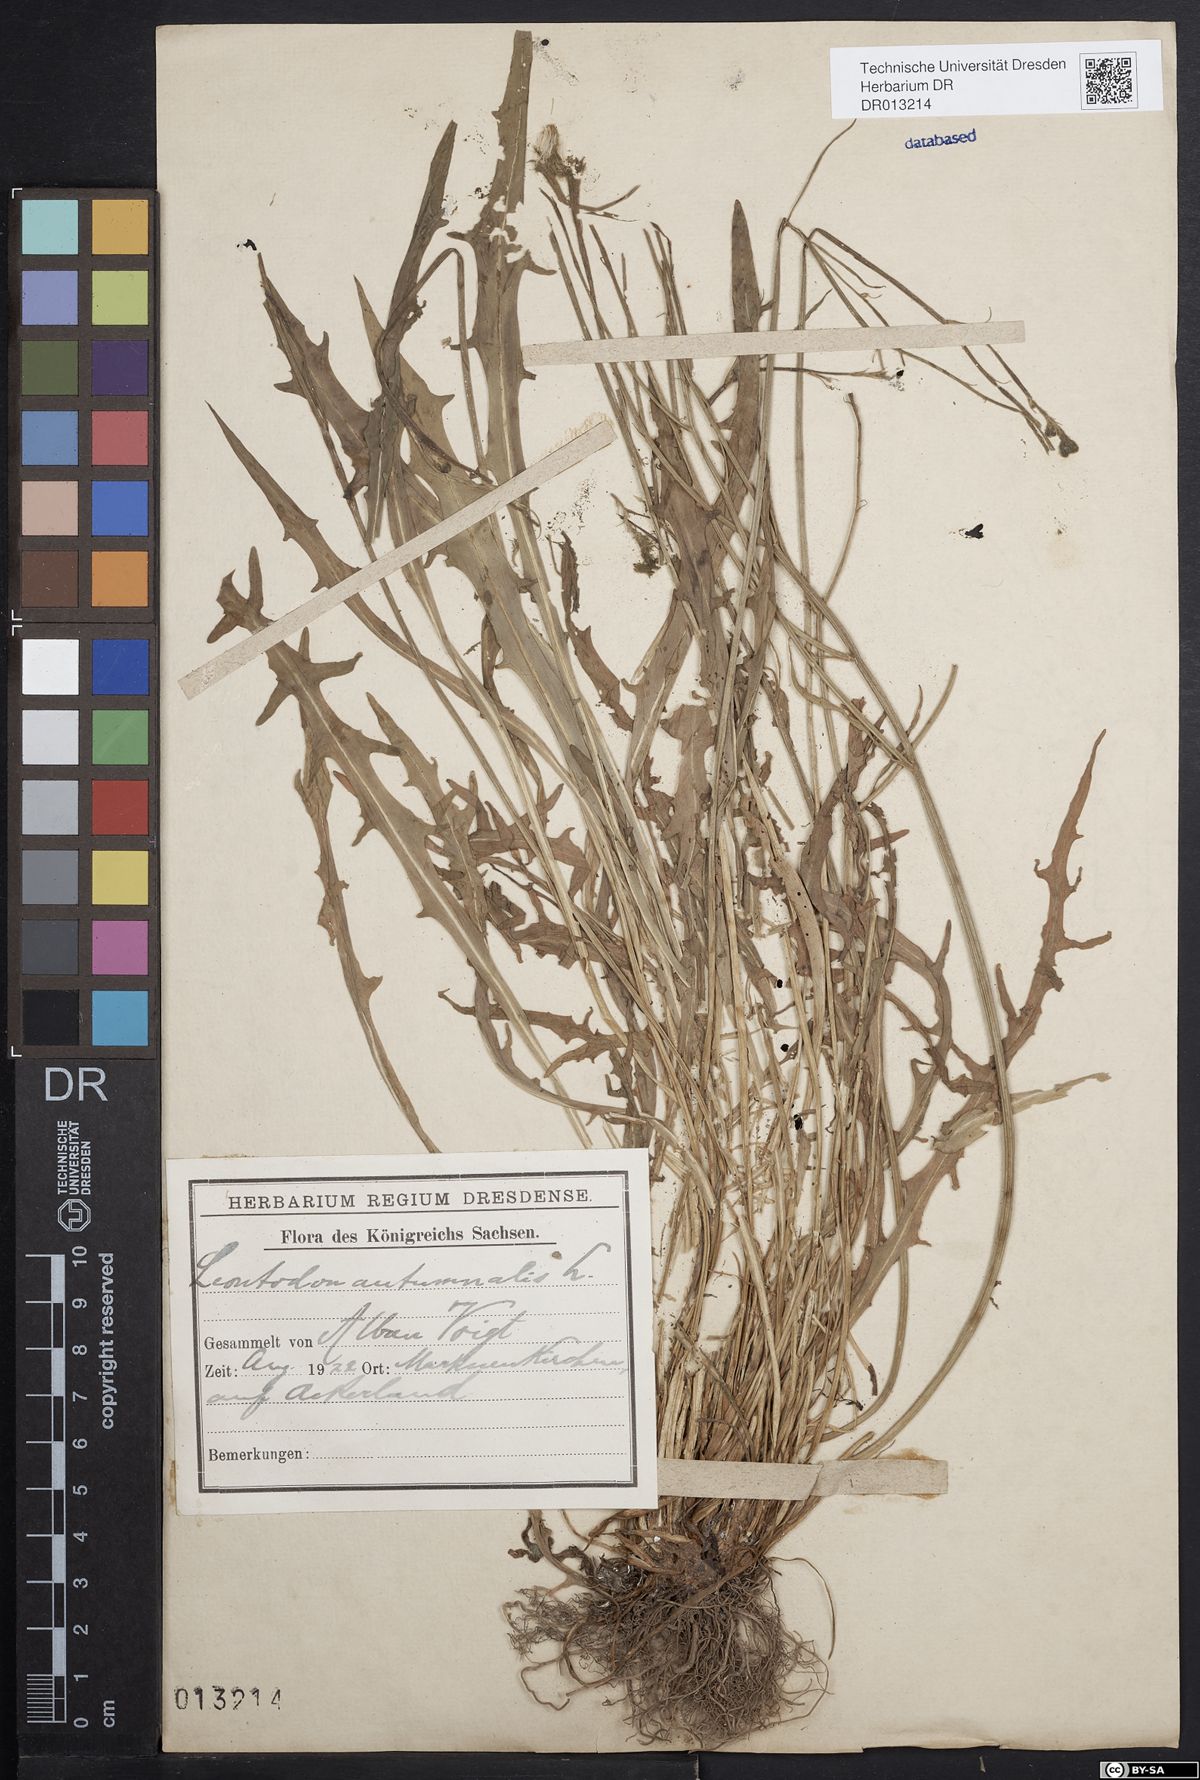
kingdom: Plantae
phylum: Tracheophyta
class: Magnoliopsida
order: Asterales
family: Asteraceae
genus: Scorzoneroides
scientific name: Scorzoneroides autumnalis
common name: Autumn hawkbit
